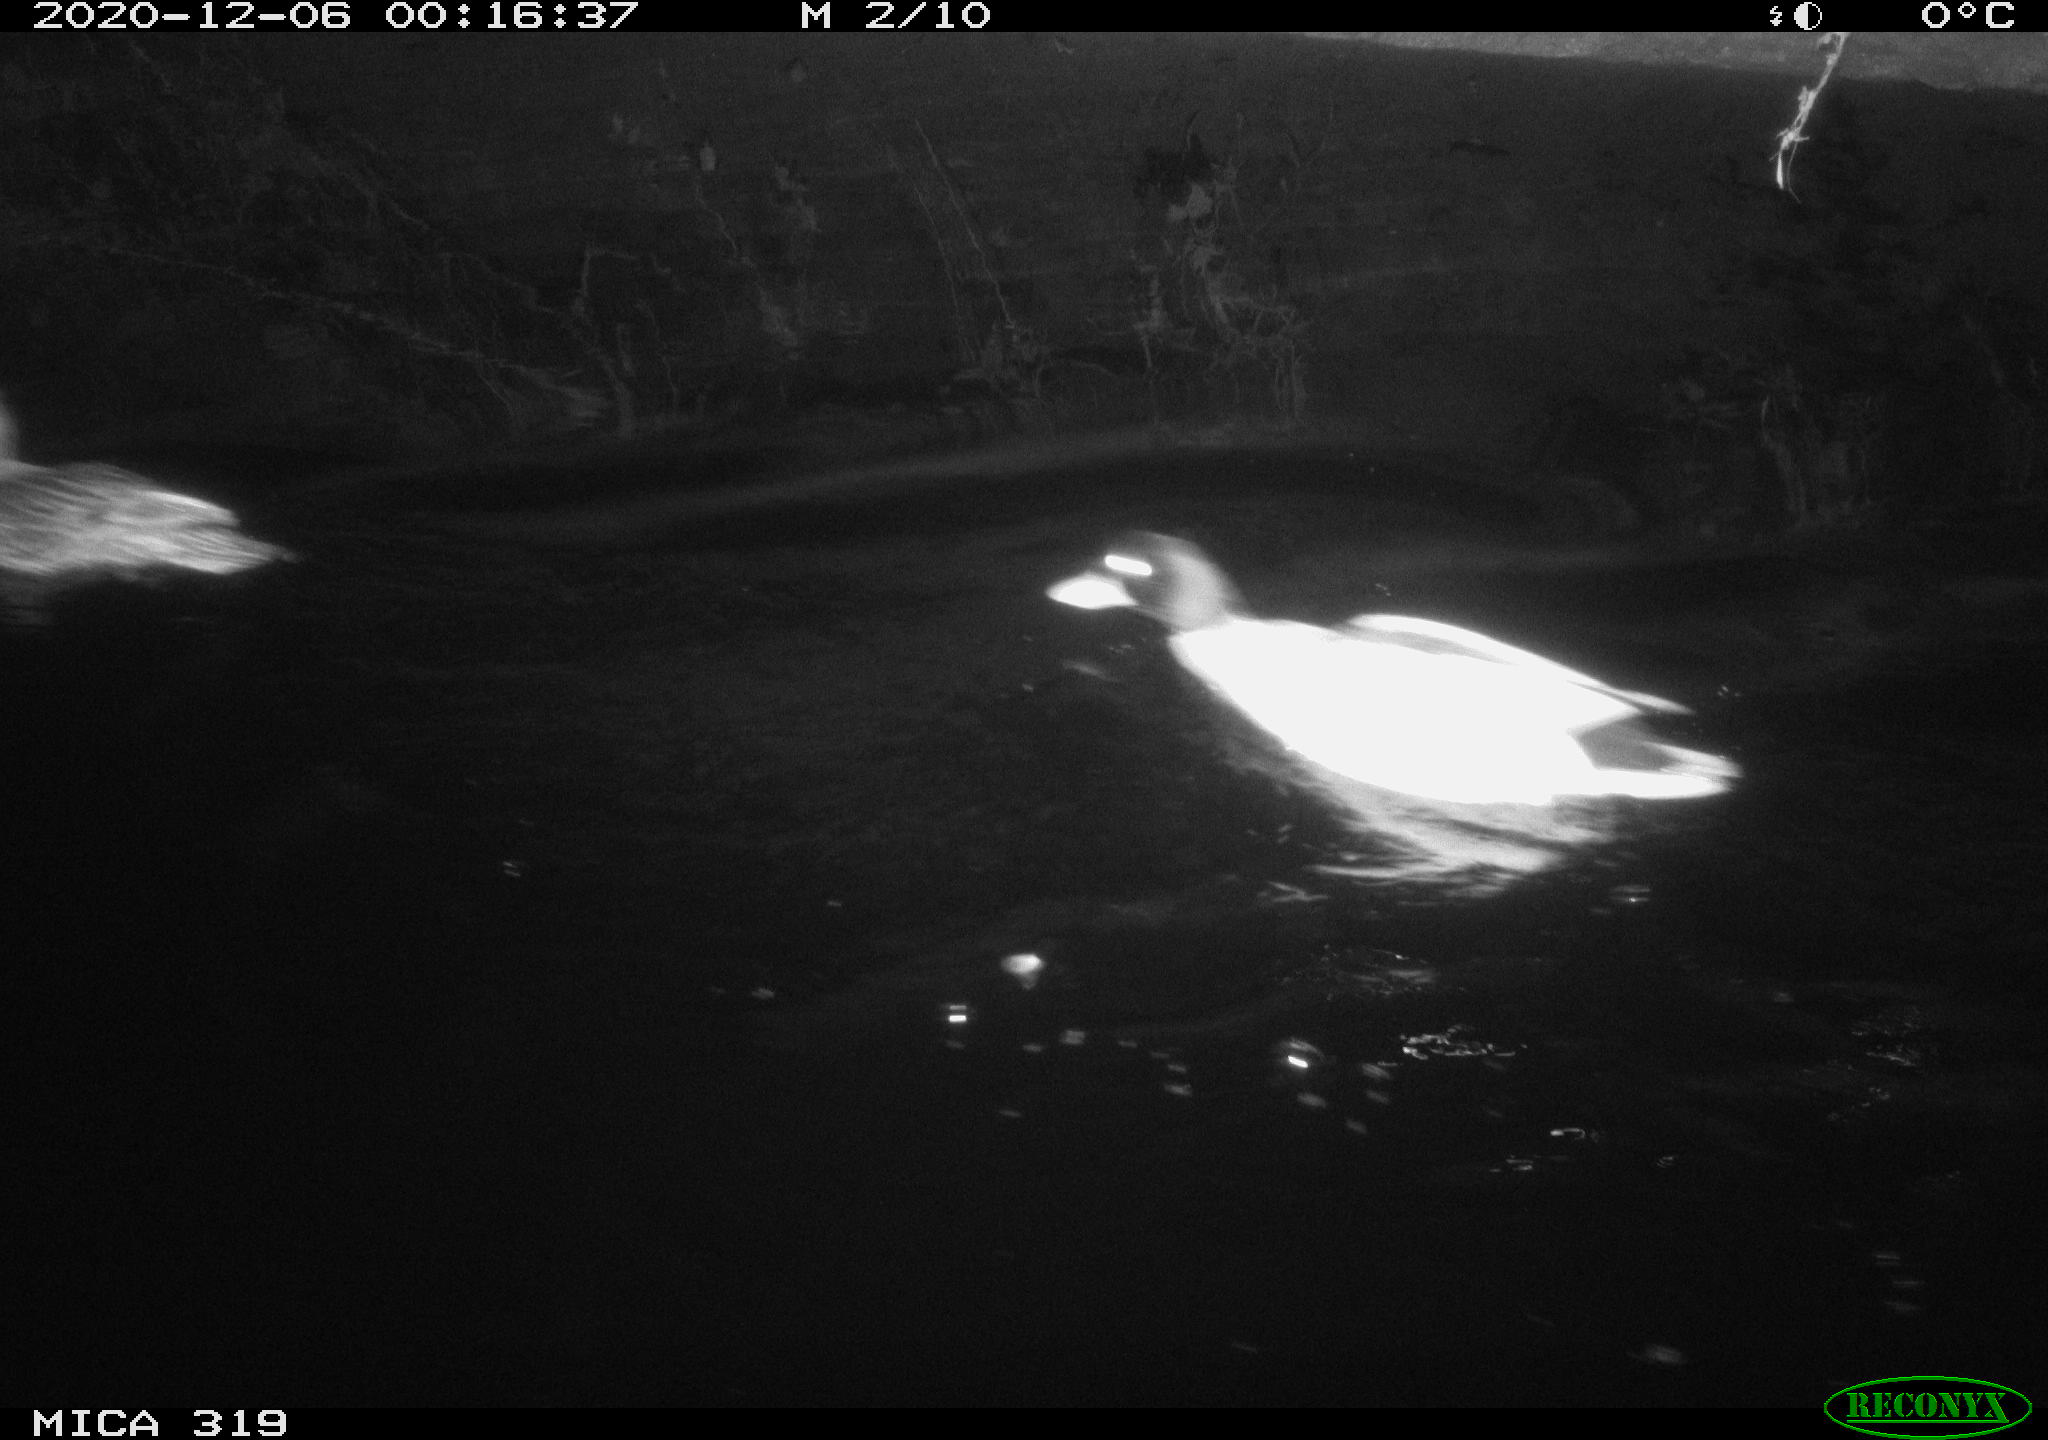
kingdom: Animalia
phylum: Chordata
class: Aves
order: Anseriformes
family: Anatidae
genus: Anas
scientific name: Anas platyrhynchos
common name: Mallard
